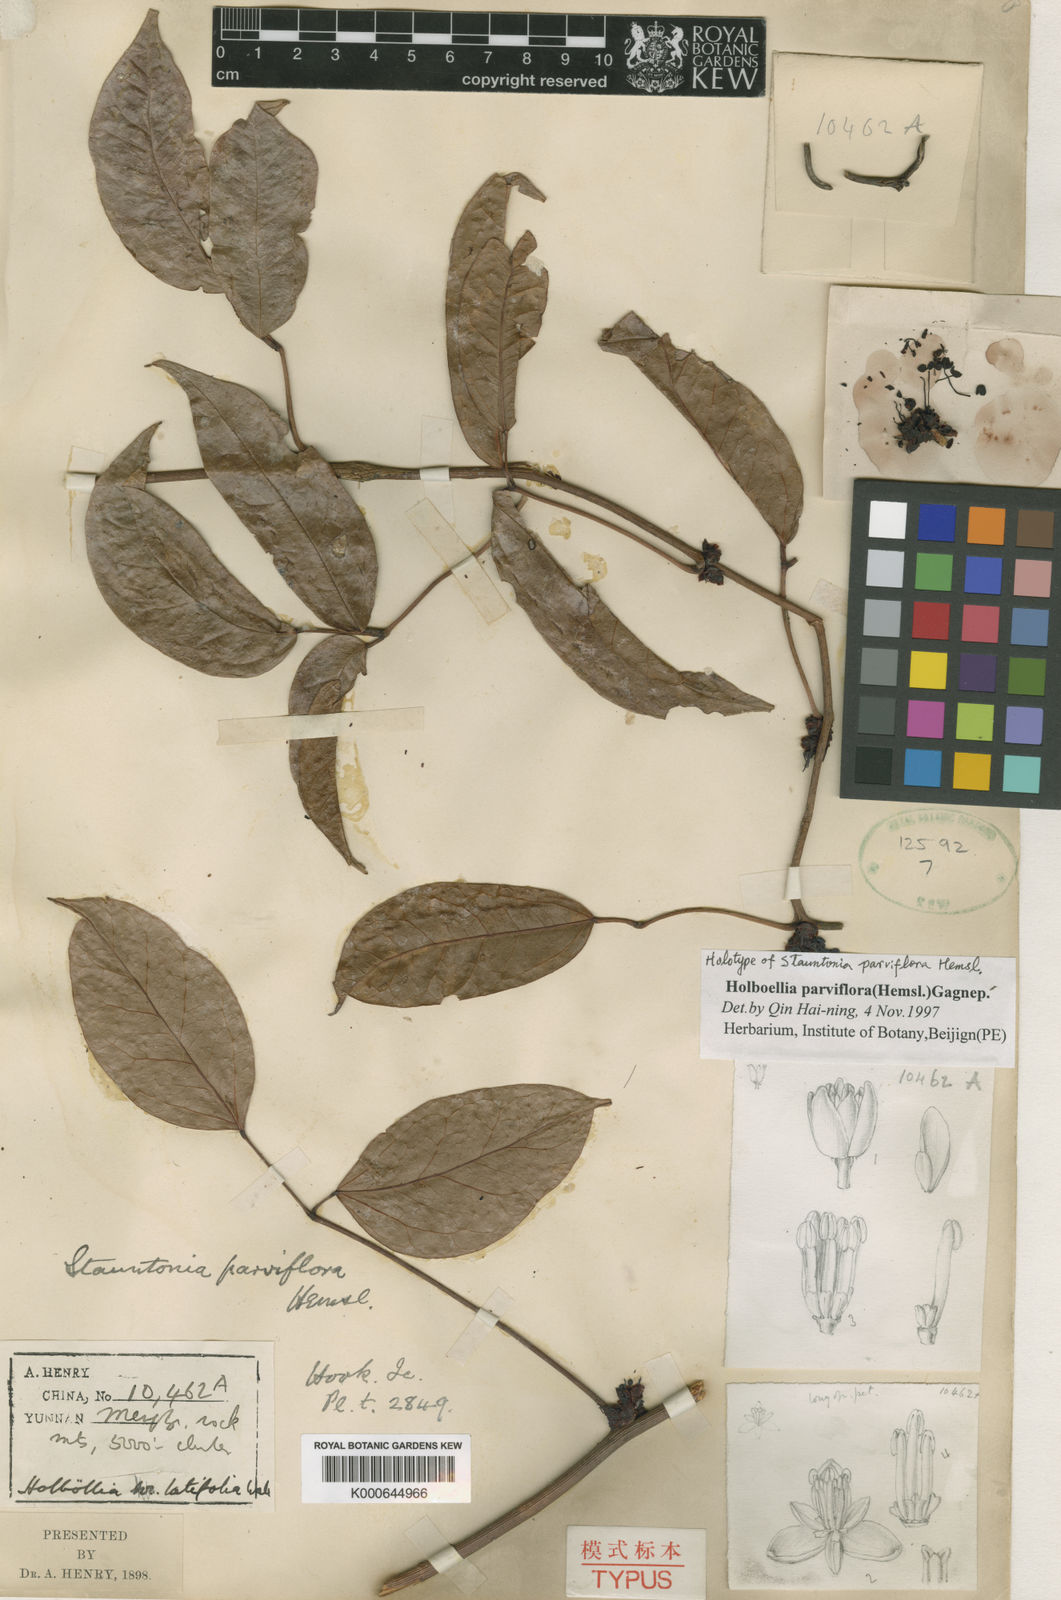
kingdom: Plantae
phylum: Tracheophyta
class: Magnoliopsida
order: Ranunculales
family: Lardizabalaceae
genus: Stauntonia
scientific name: Stauntonia parviflora
